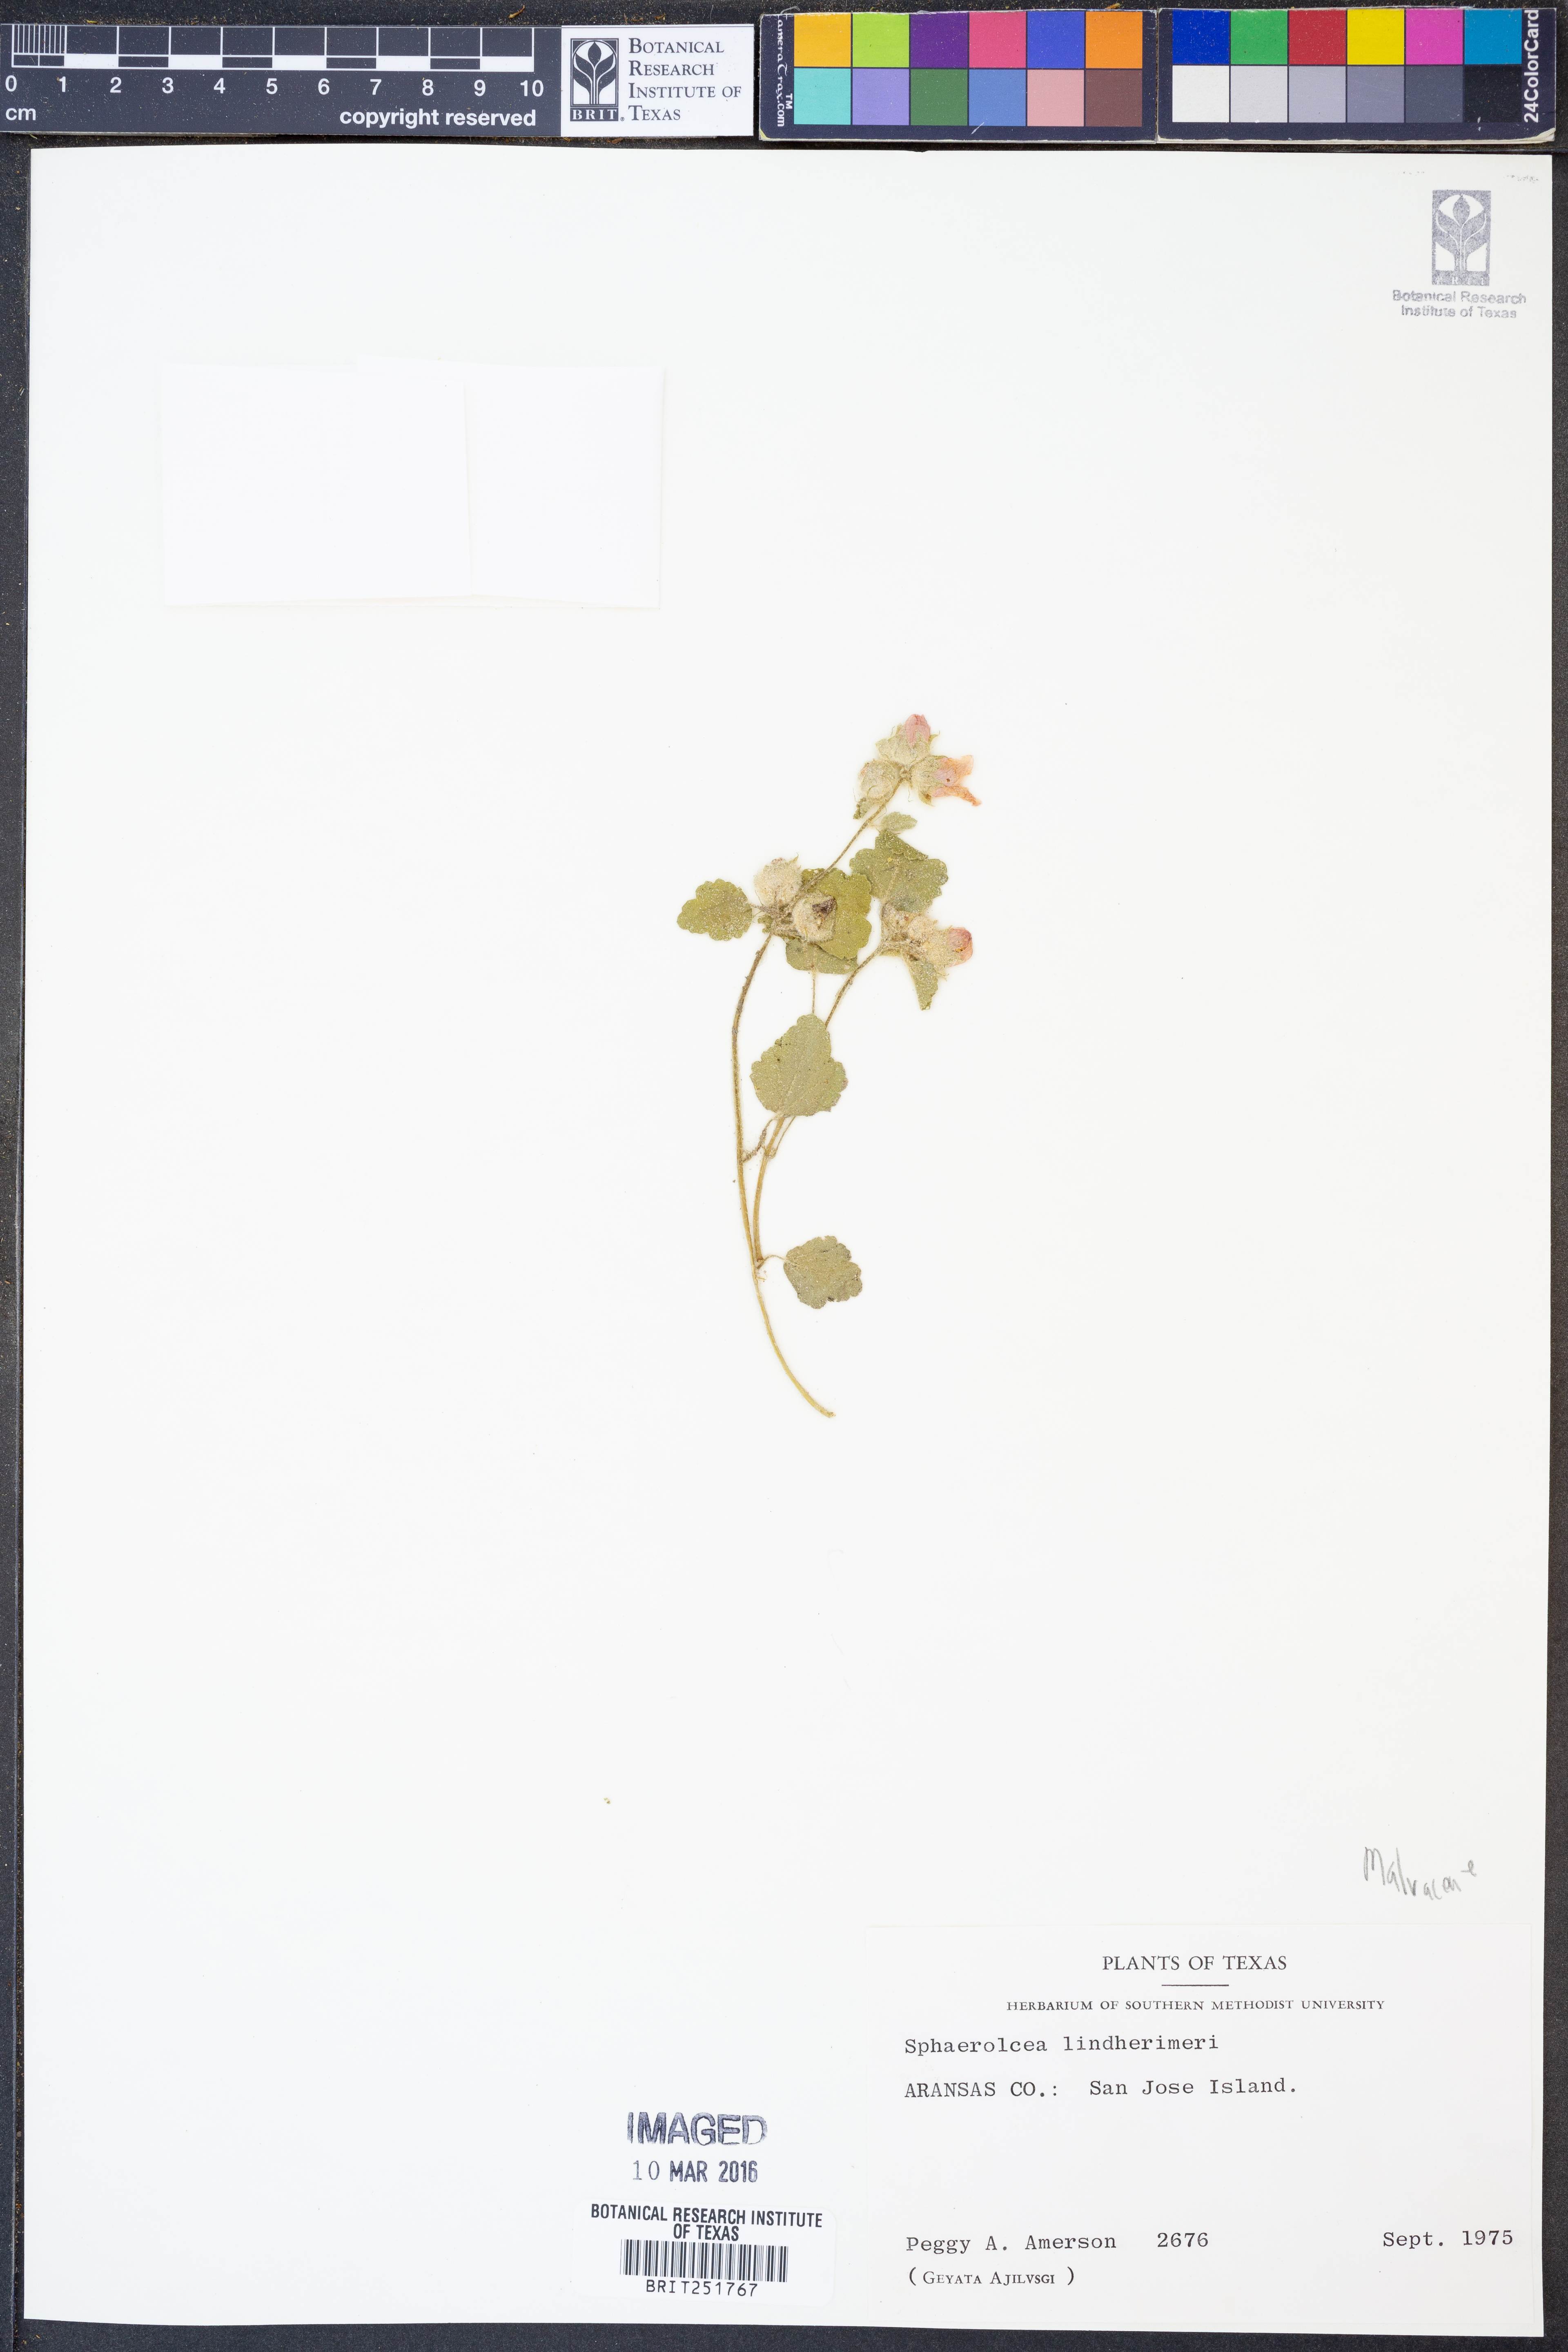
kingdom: Plantae
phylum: Tracheophyta
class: Magnoliopsida
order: Malvales
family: Malvaceae
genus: Sphaeralcea
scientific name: Sphaeralcea lindheimeri
